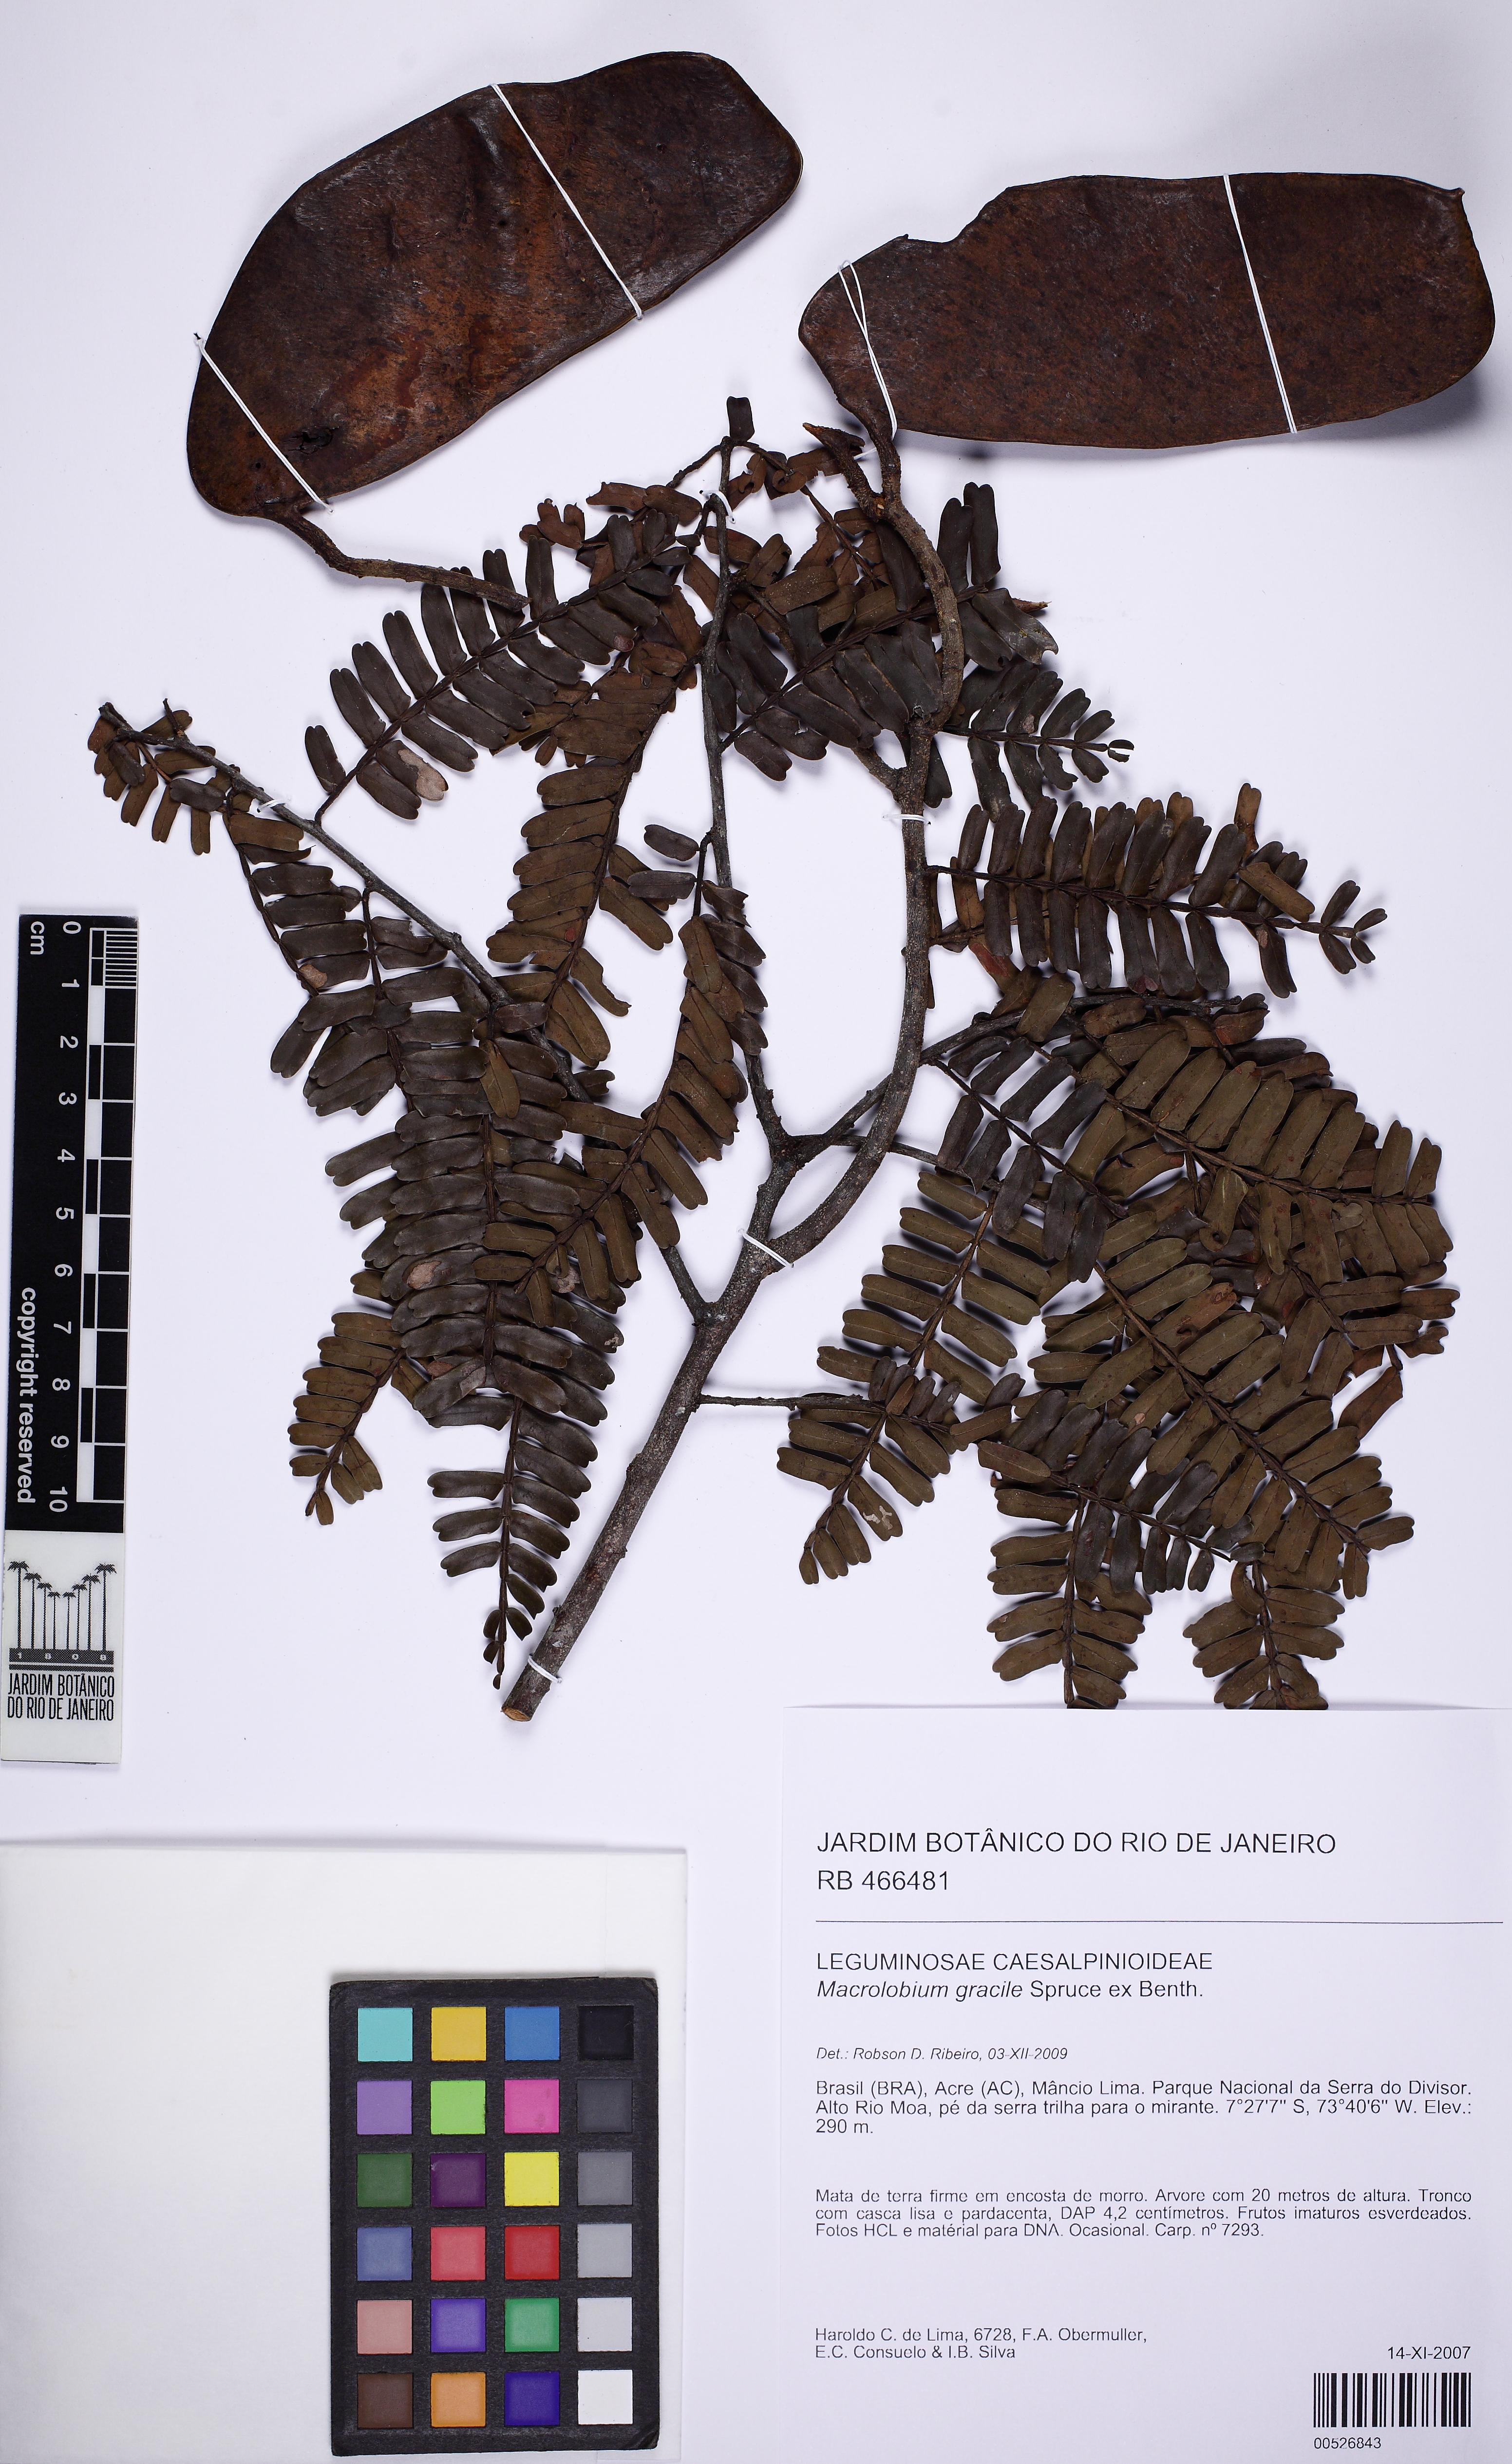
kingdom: Plantae
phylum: Tracheophyta
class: Magnoliopsida
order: Fabales
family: Fabaceae
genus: Macrolobium
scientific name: Macrolobium gracile
